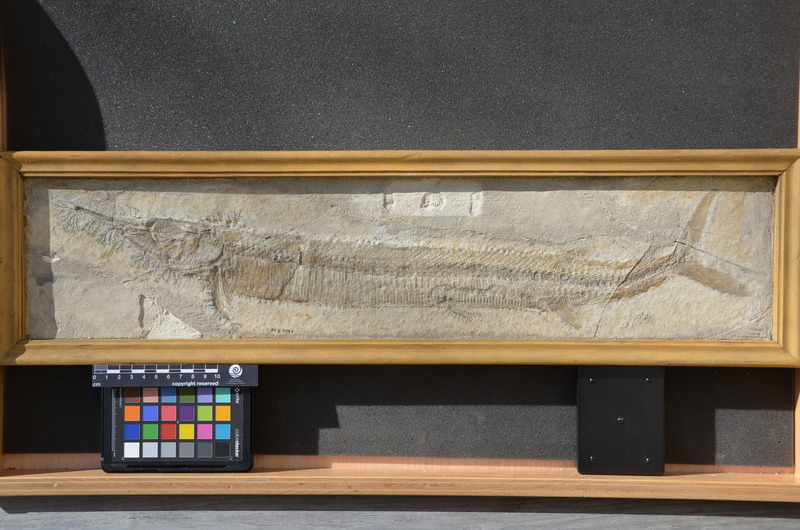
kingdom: Animalia
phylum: Chordata
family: Aspidorhynchidae
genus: Aspidorhynchus
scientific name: Aspidorhynchus acutirostris
